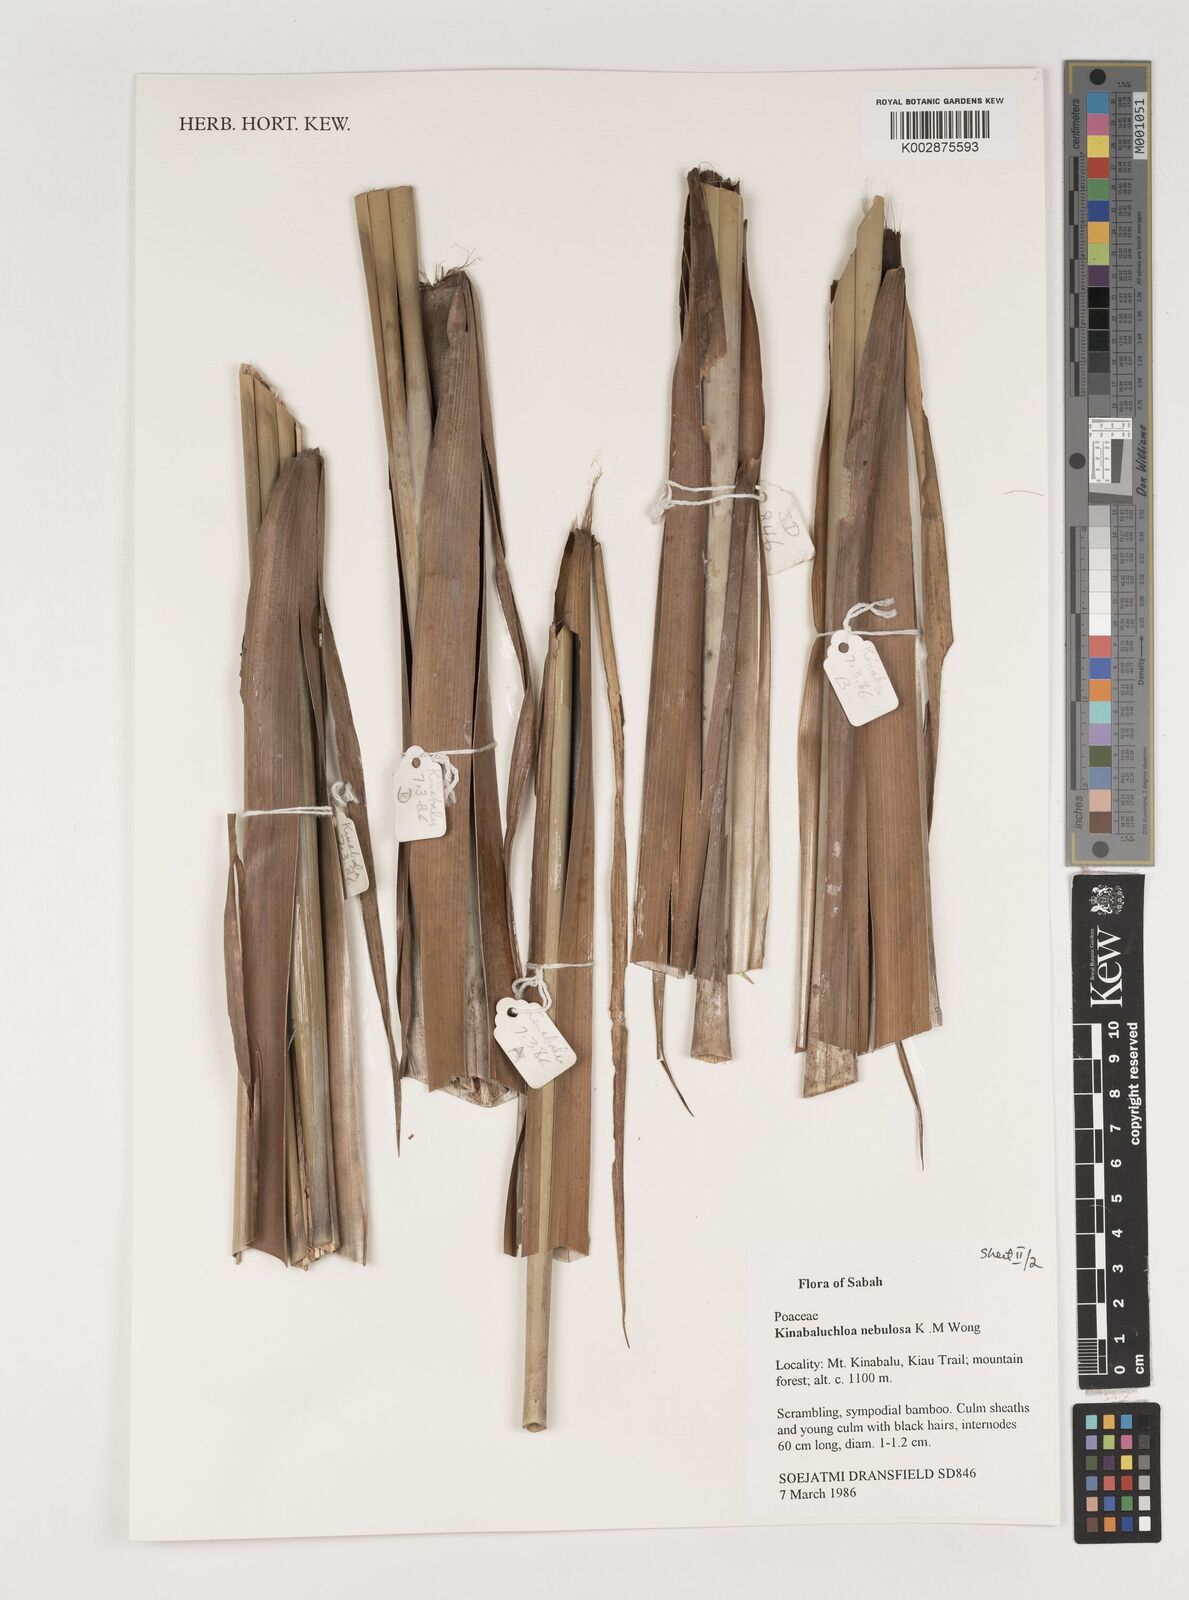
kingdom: Plantae
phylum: Tracheophyta
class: Liliopsida
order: Poales
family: Poaceae
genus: Kinabaluchloa
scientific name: Kinabaluchloa nebulosa
